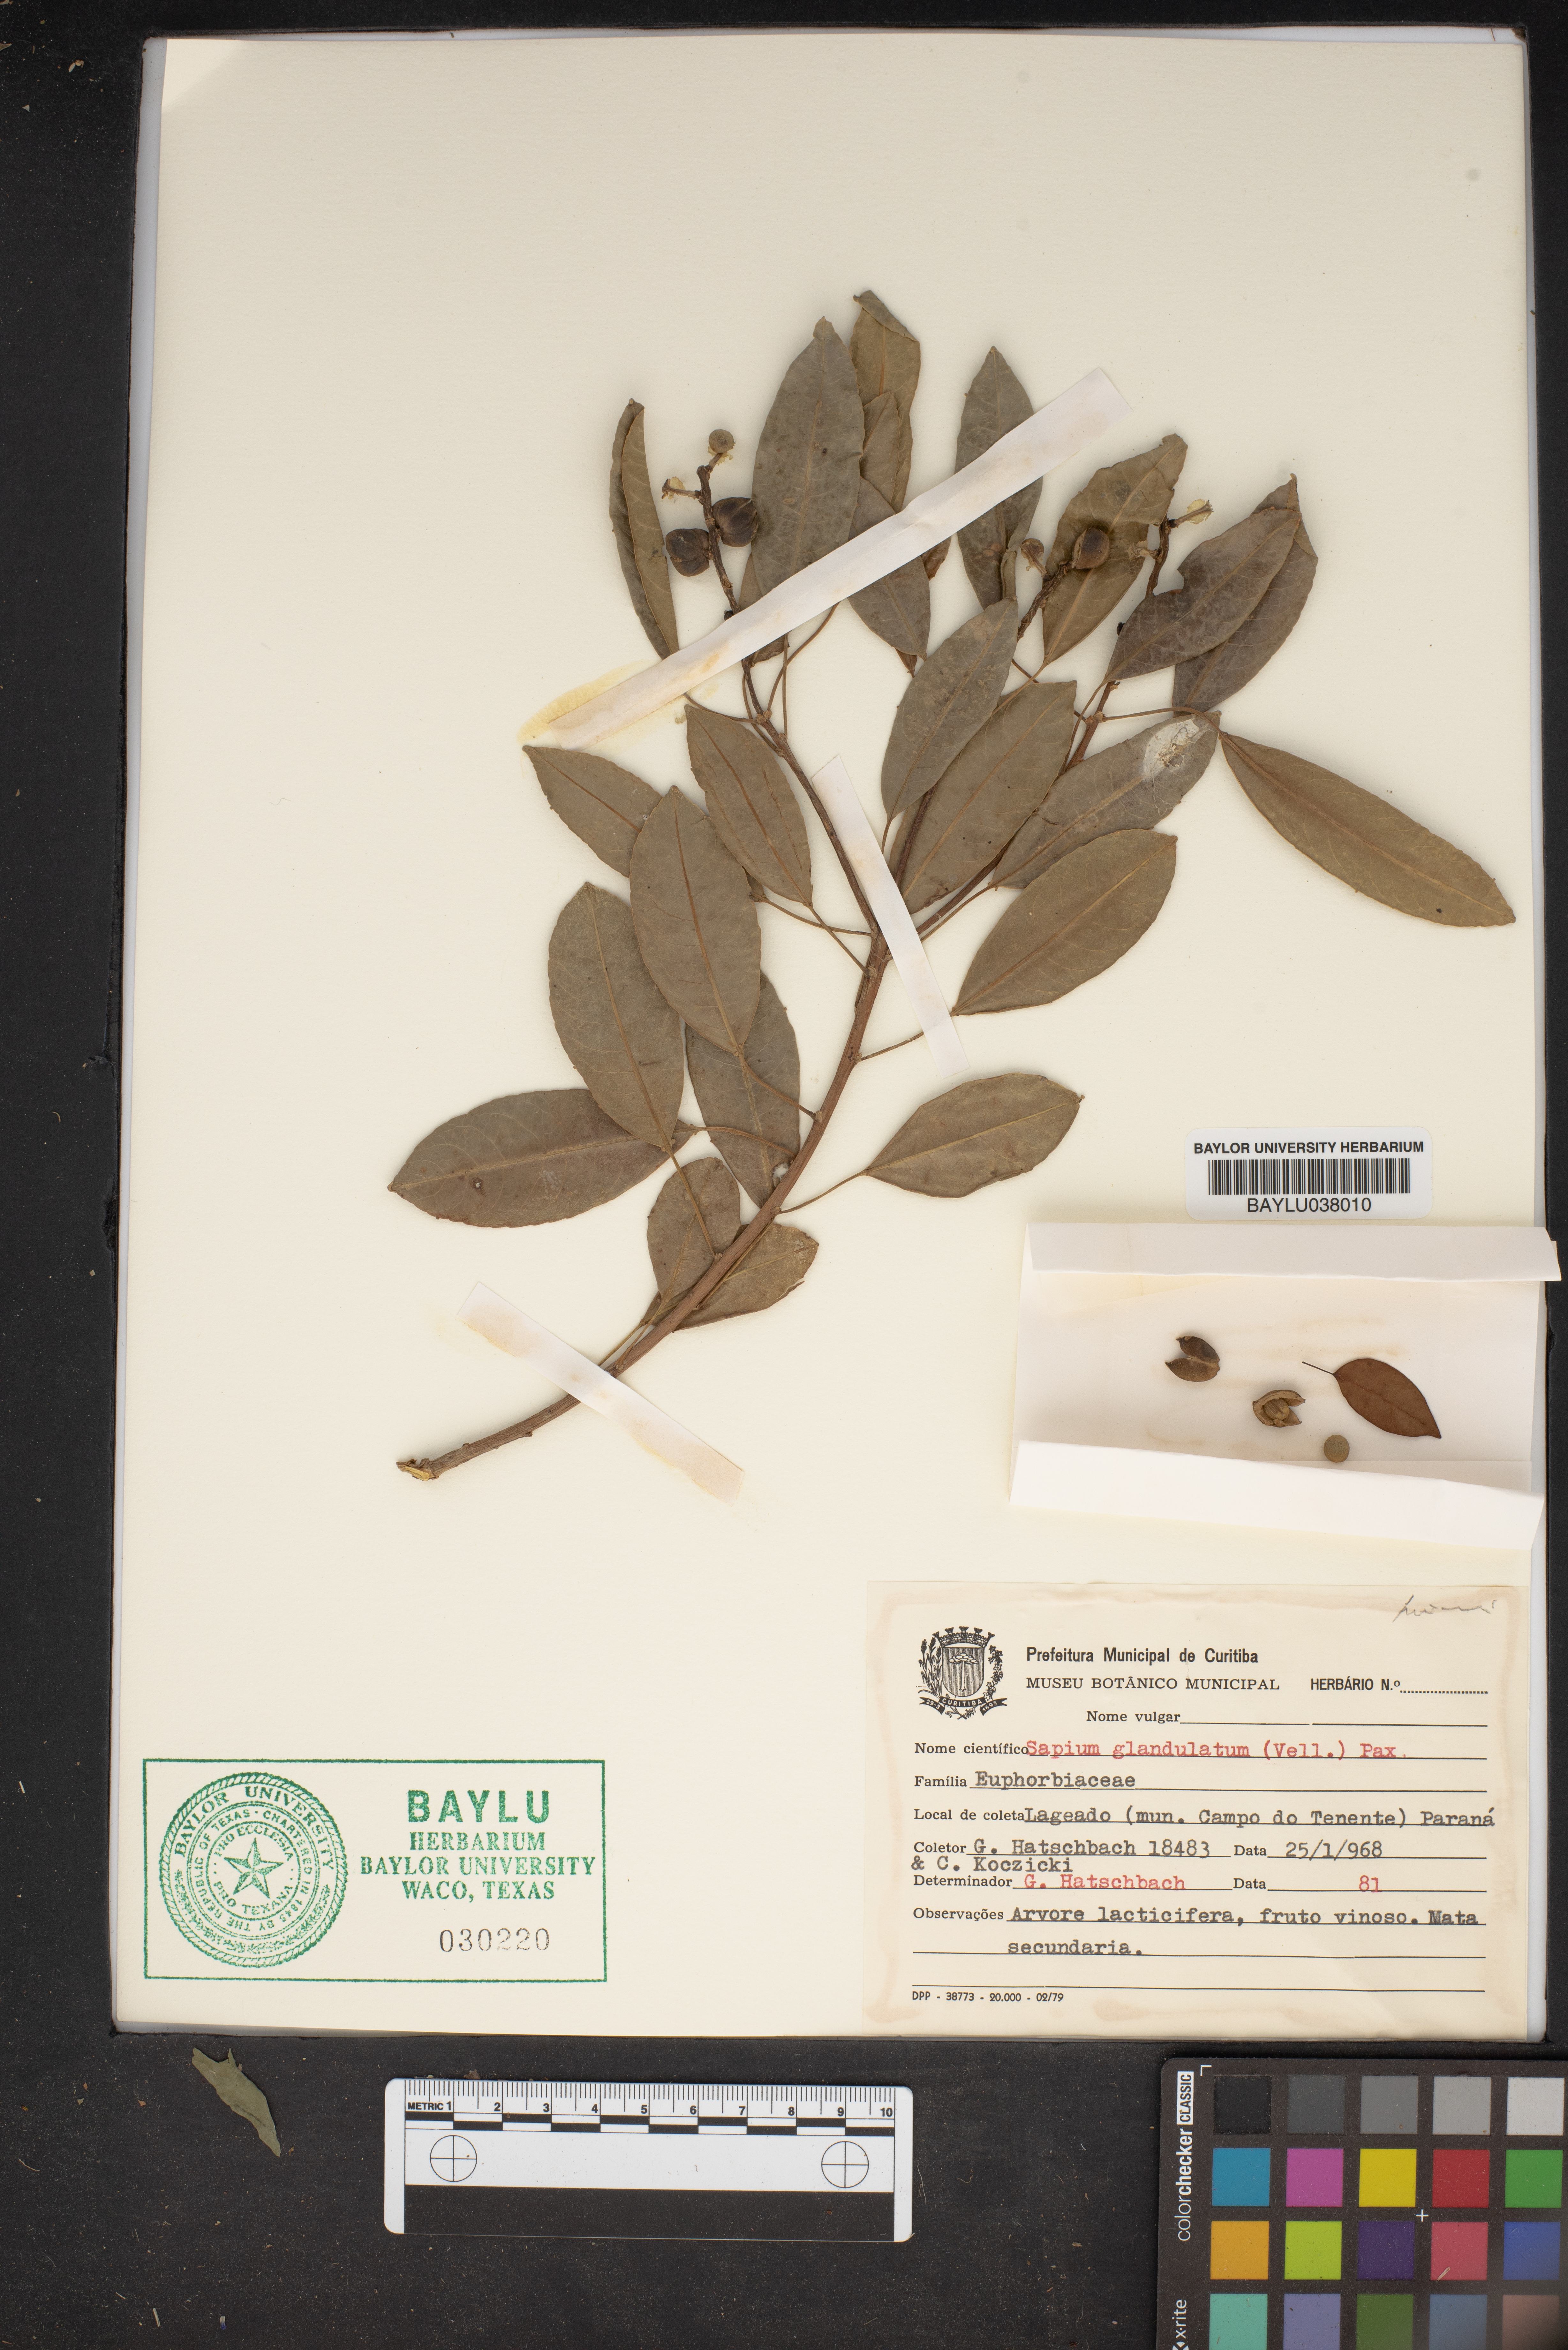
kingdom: Plantae
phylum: Tracheophyta
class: Magnoliopsida
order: Malpighiales
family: Euphorbiaceae
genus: Sapium
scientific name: Sapium glandulosum
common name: Milktree
